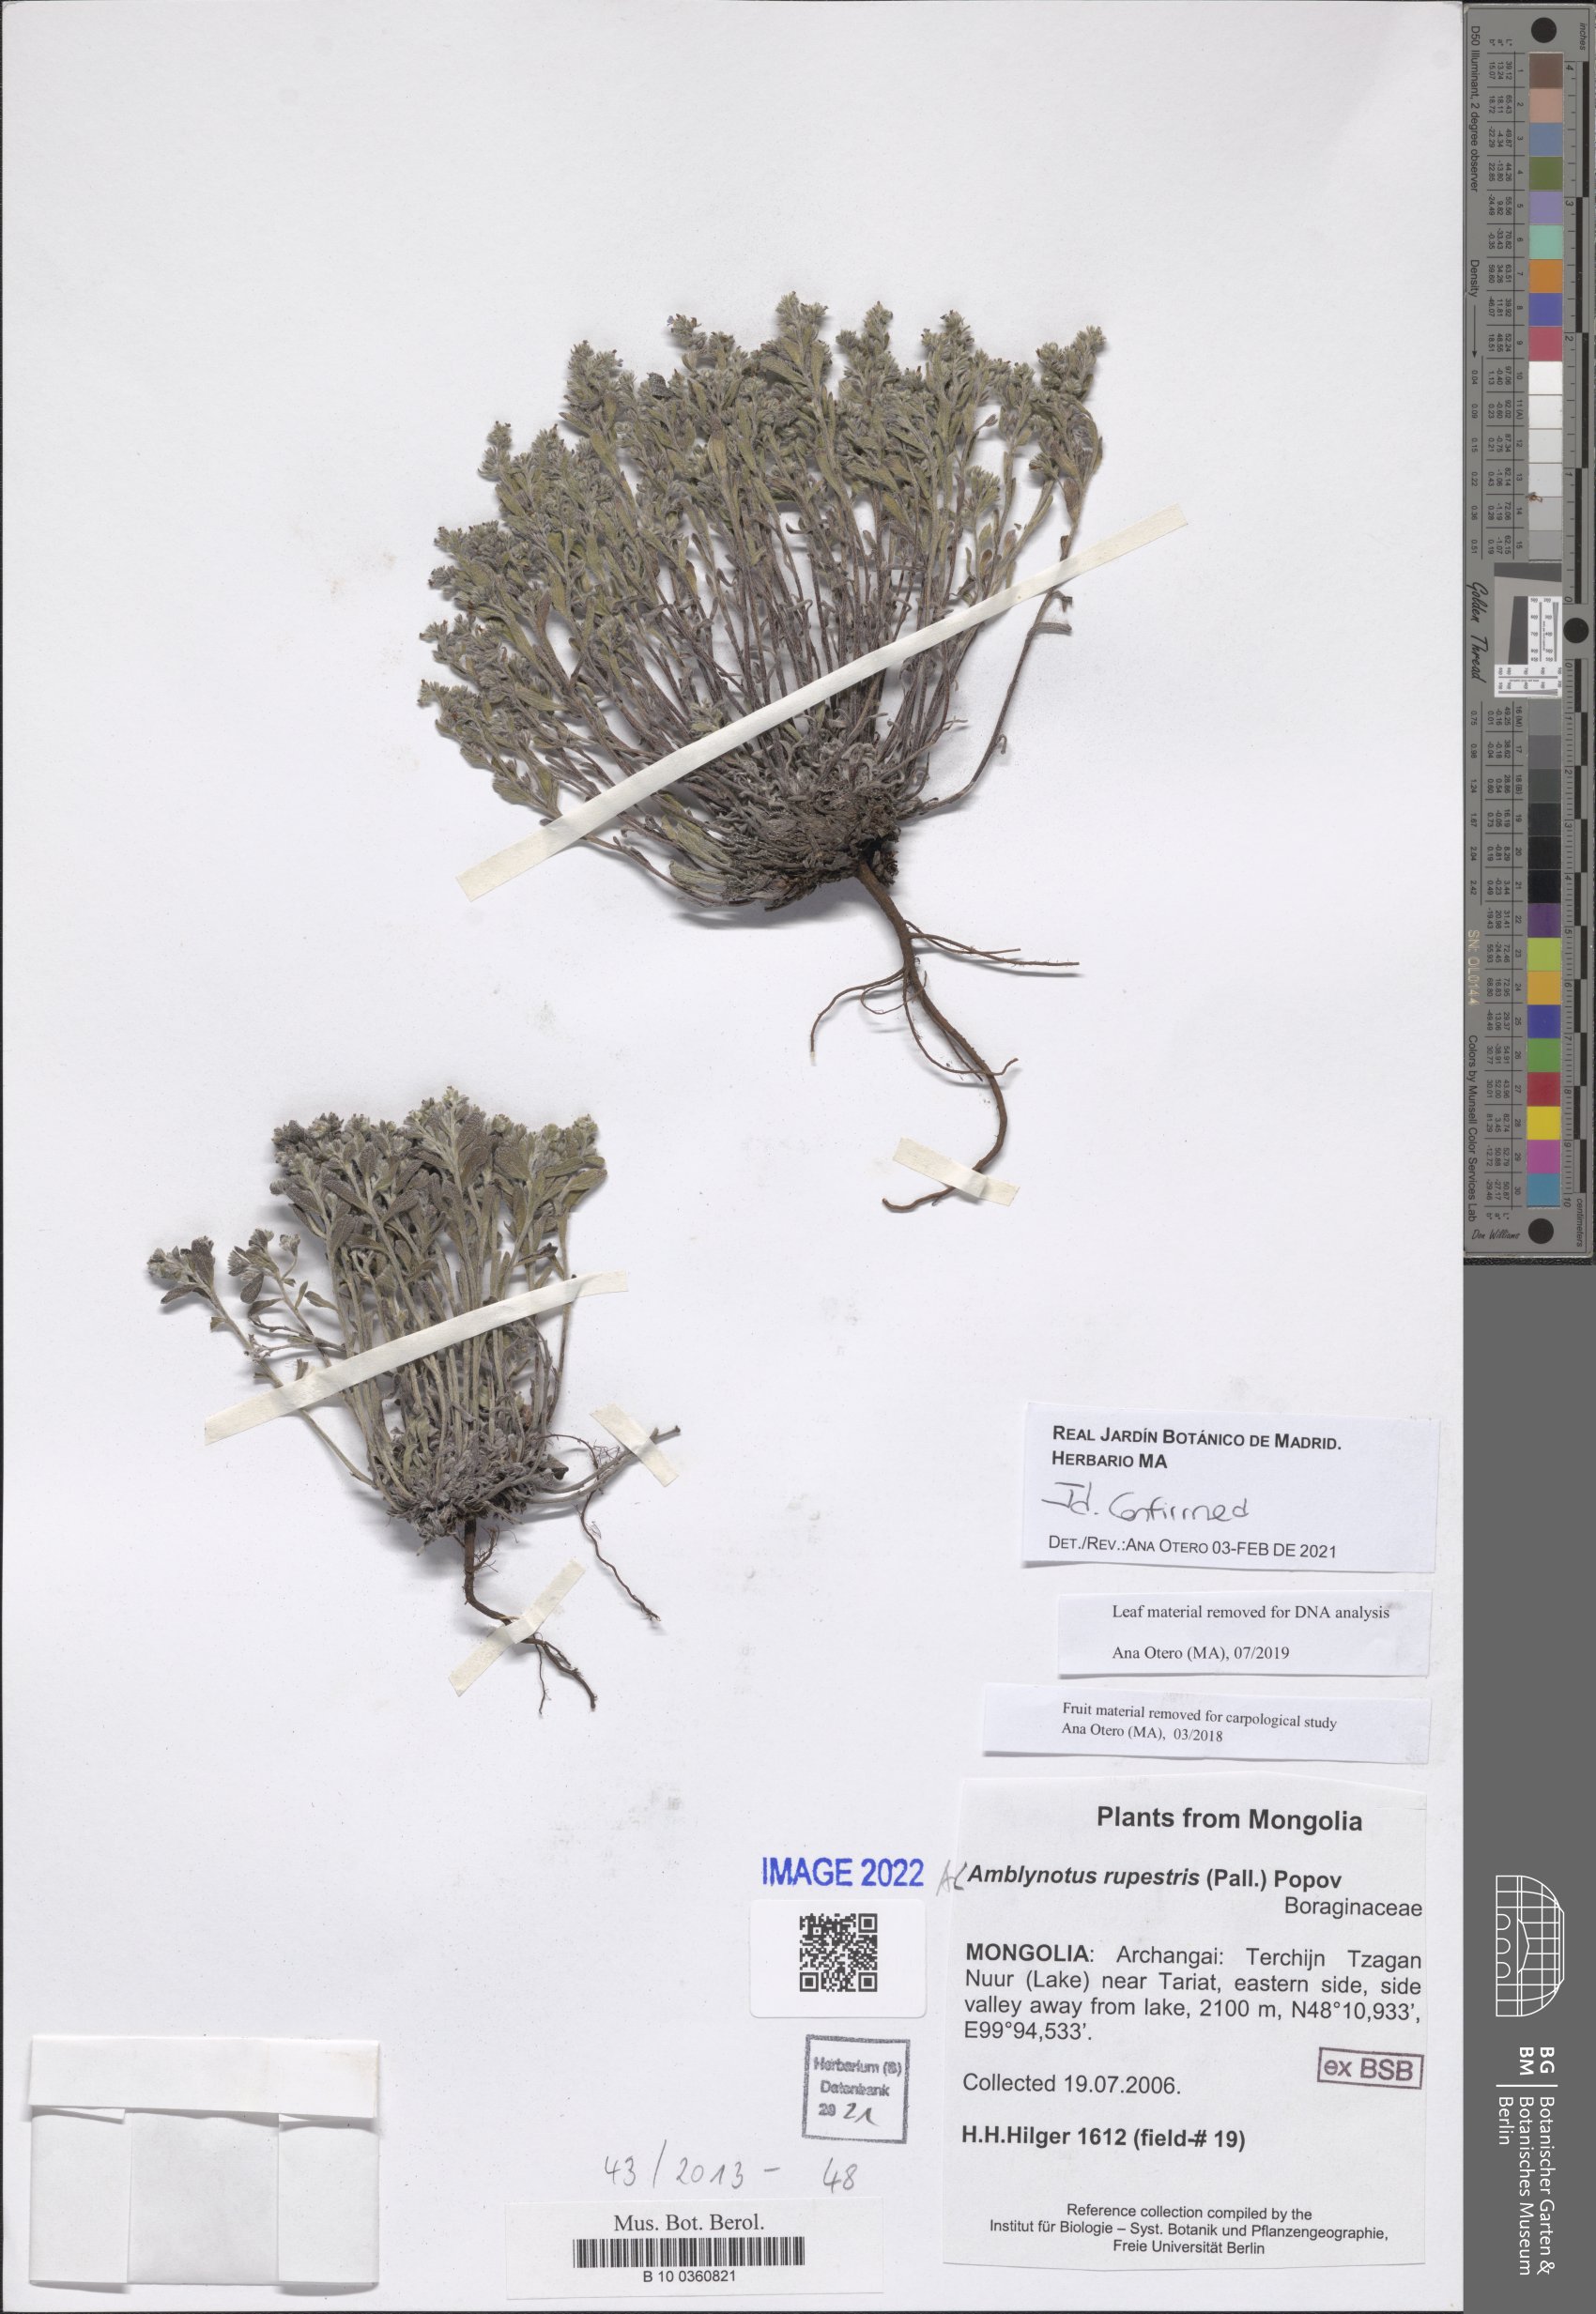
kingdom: Plantae
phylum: Tracheophyta
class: Magnoliopsida
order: Boraginales
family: Boraginaceae
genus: Eritrichium
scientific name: Eritrichium rupestre
